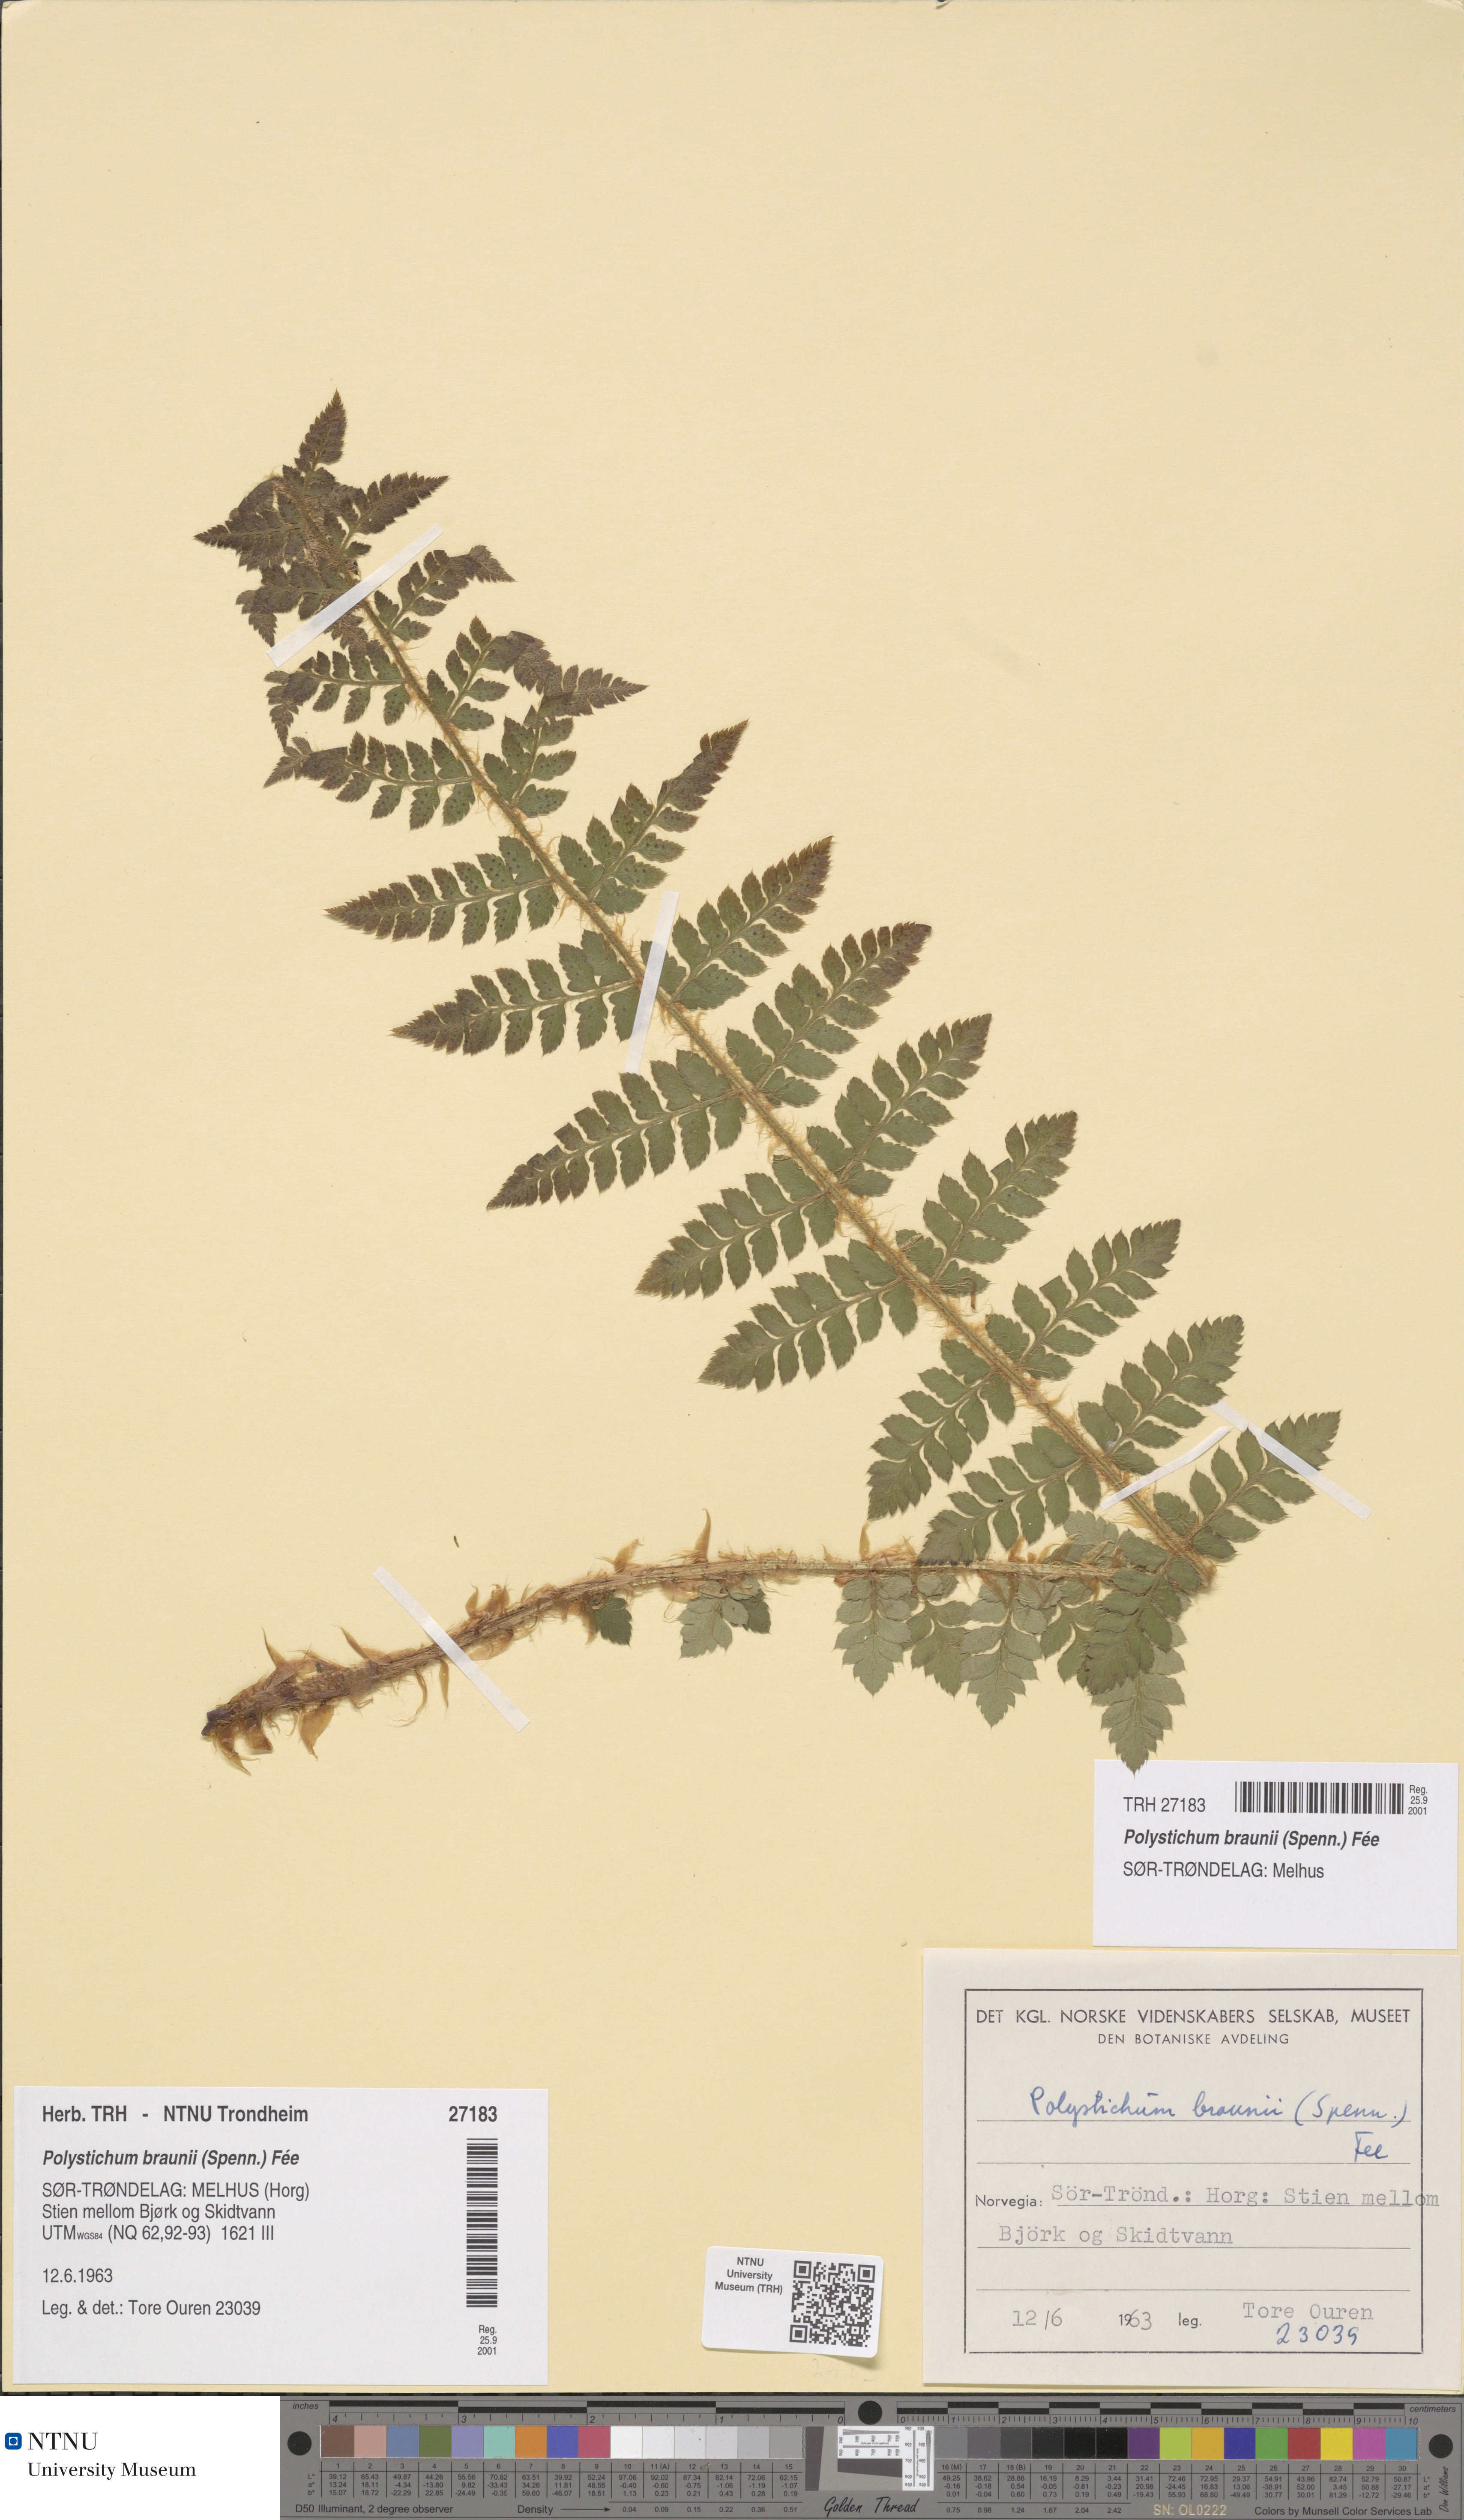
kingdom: Plantae
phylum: Tracheophyta
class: Polypodiopsida
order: Polypodiales
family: Dryopteridaceae
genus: Polystichum
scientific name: Polystichum braunii
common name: Braun's holly fern
